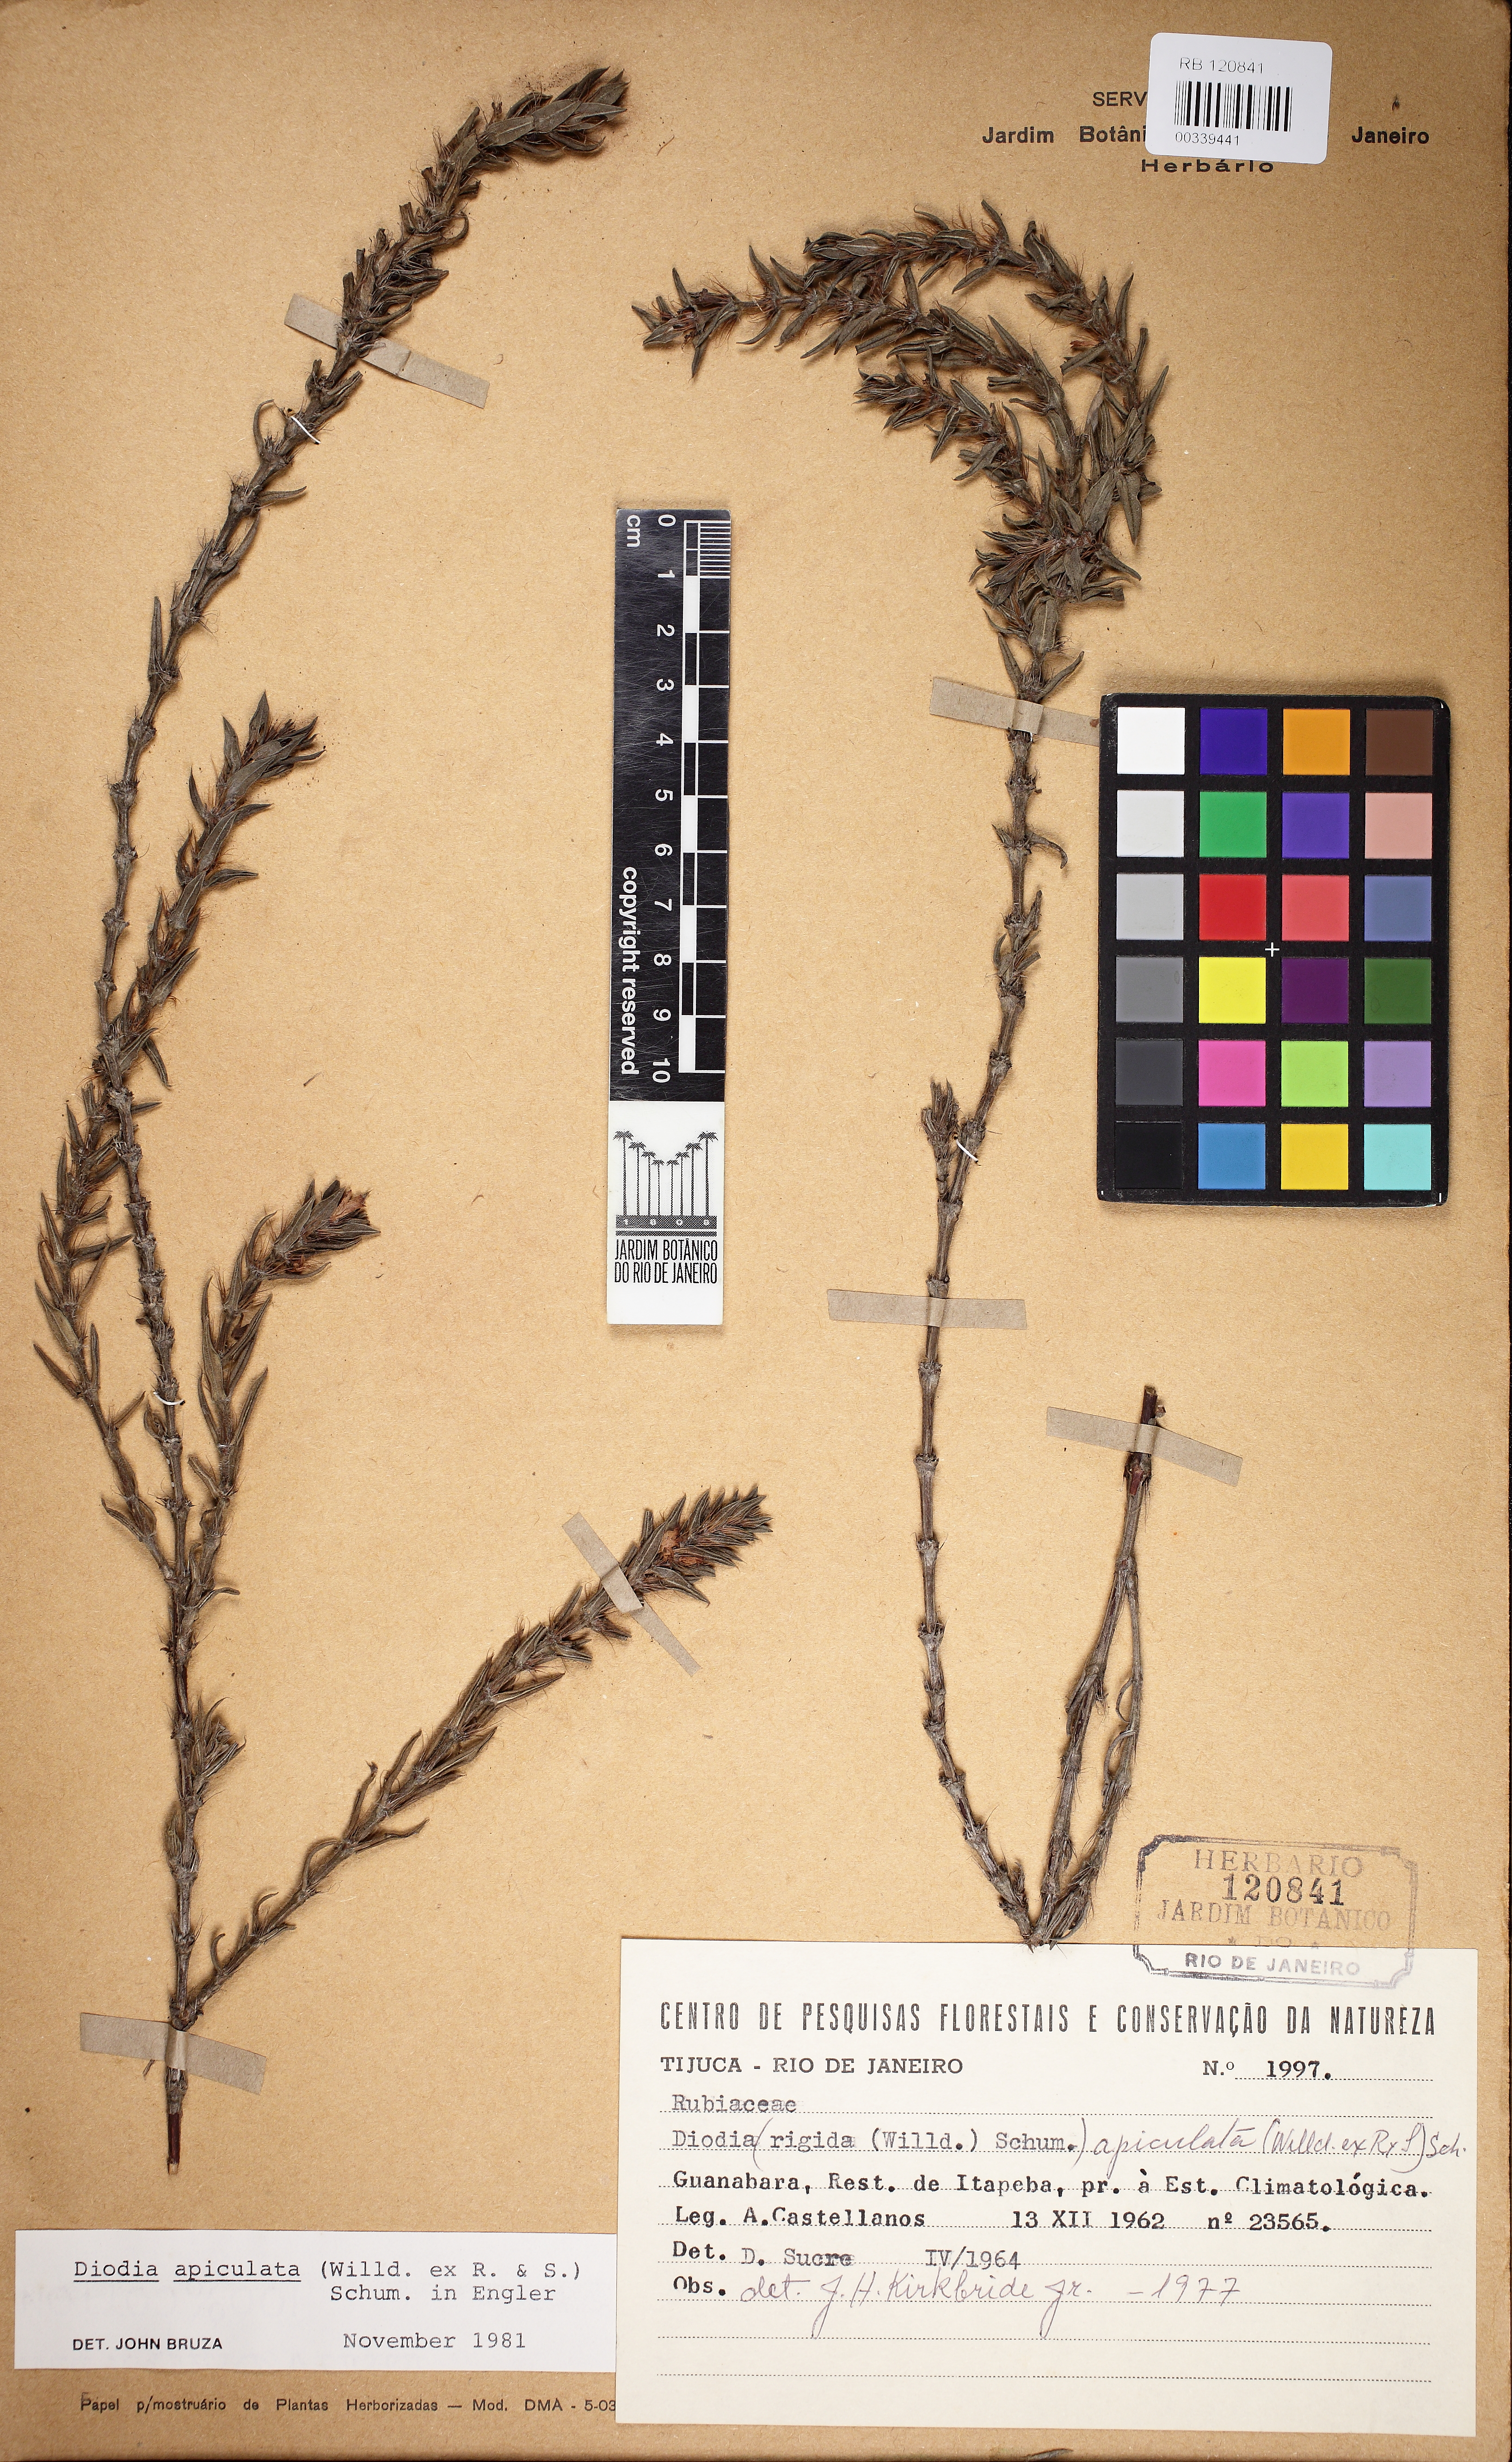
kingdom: Plantae
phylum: Tracheophyta
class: Magnoliopsida
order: Gentianales
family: Rubiaceae
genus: Hexasepalum
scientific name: Hexasepalum apiculatum
